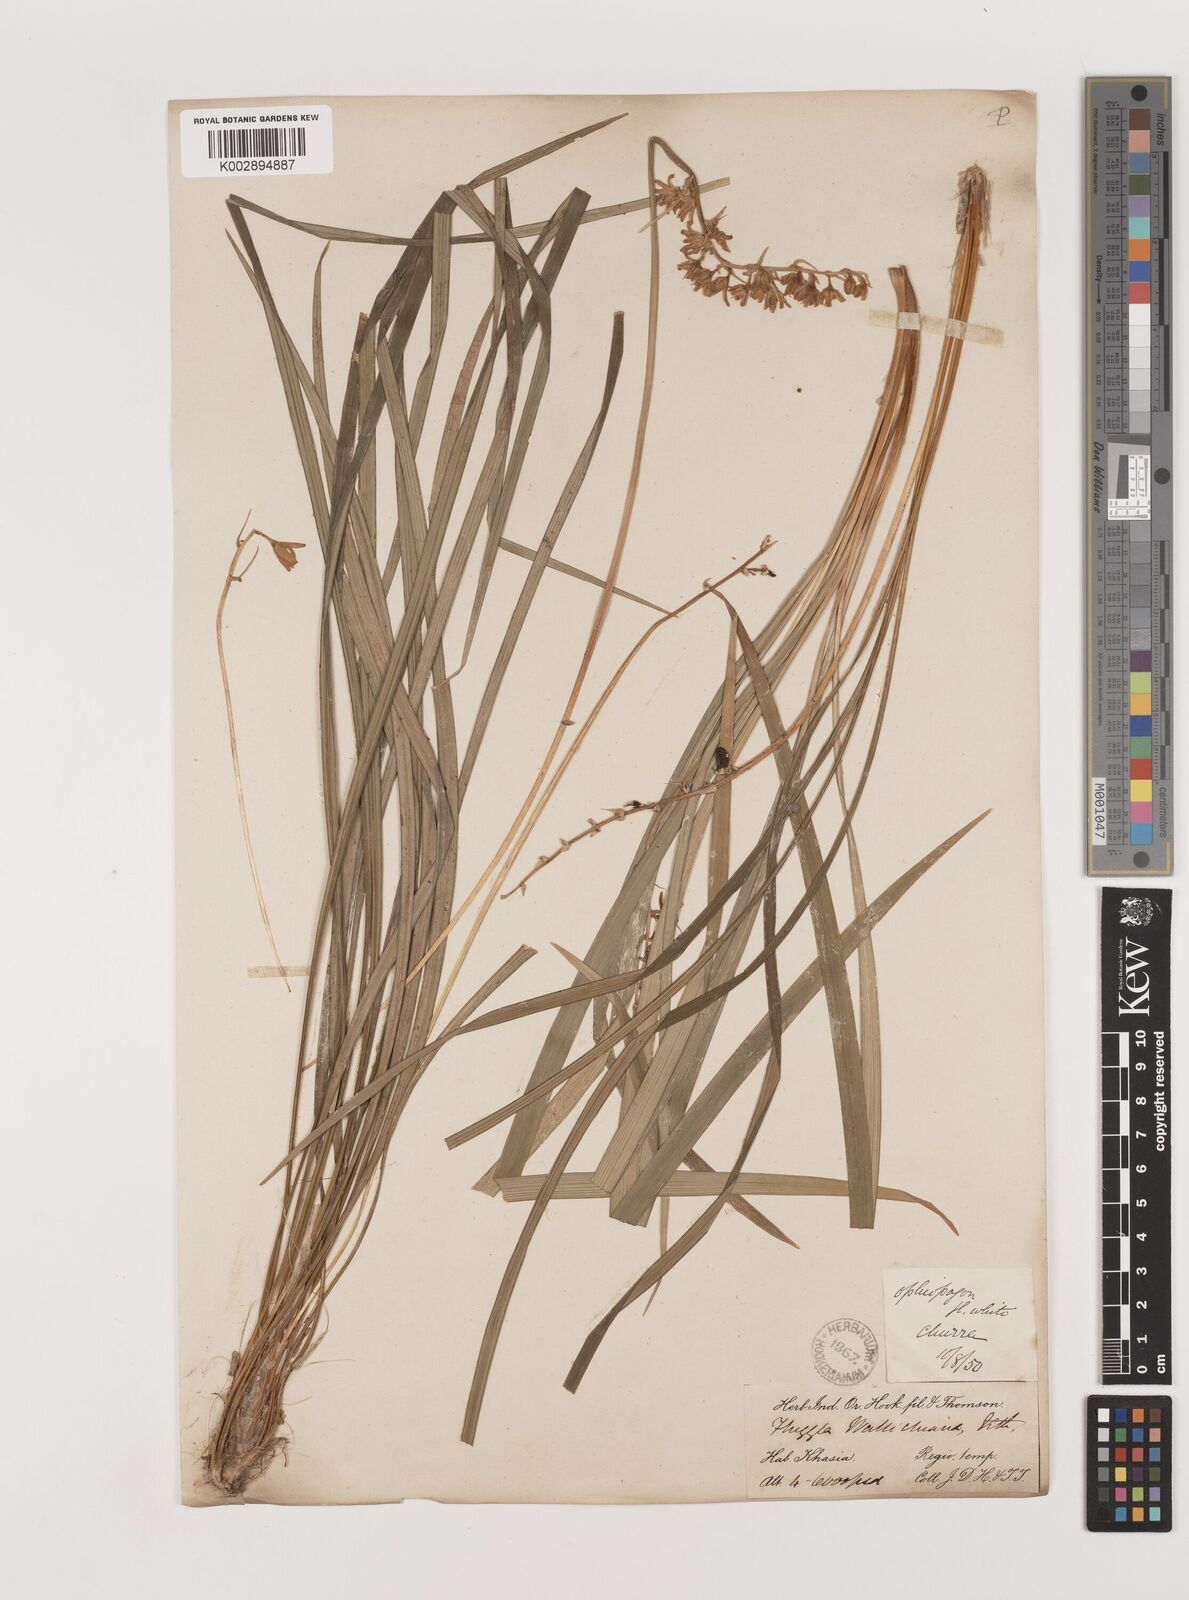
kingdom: Plantae
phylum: Tracheophyta
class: Liliopsida
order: Asparagales
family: Asparagaceae
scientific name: Asparagaceae
